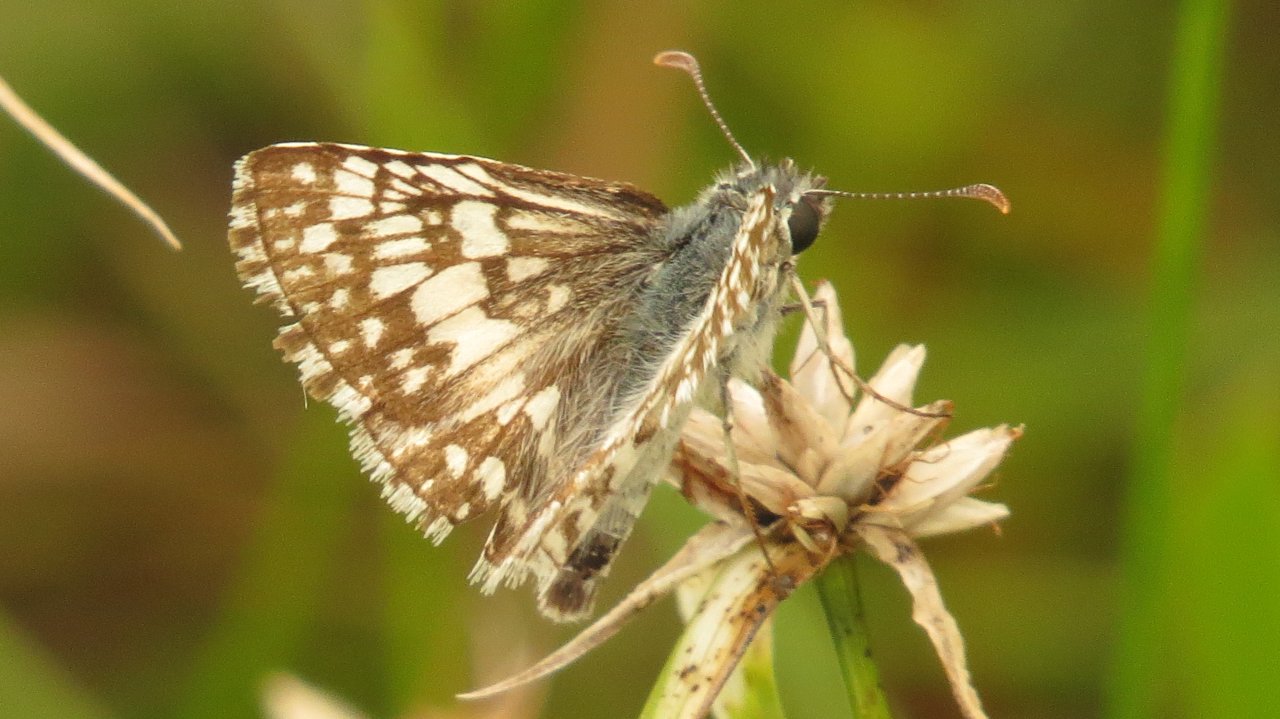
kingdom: Animalia
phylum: Arthropoda
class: Insecta
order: Lepidoptera
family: Hesperiidae
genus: Pyrgus
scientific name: Pyrgus communis
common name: White Checkered-Skipper
